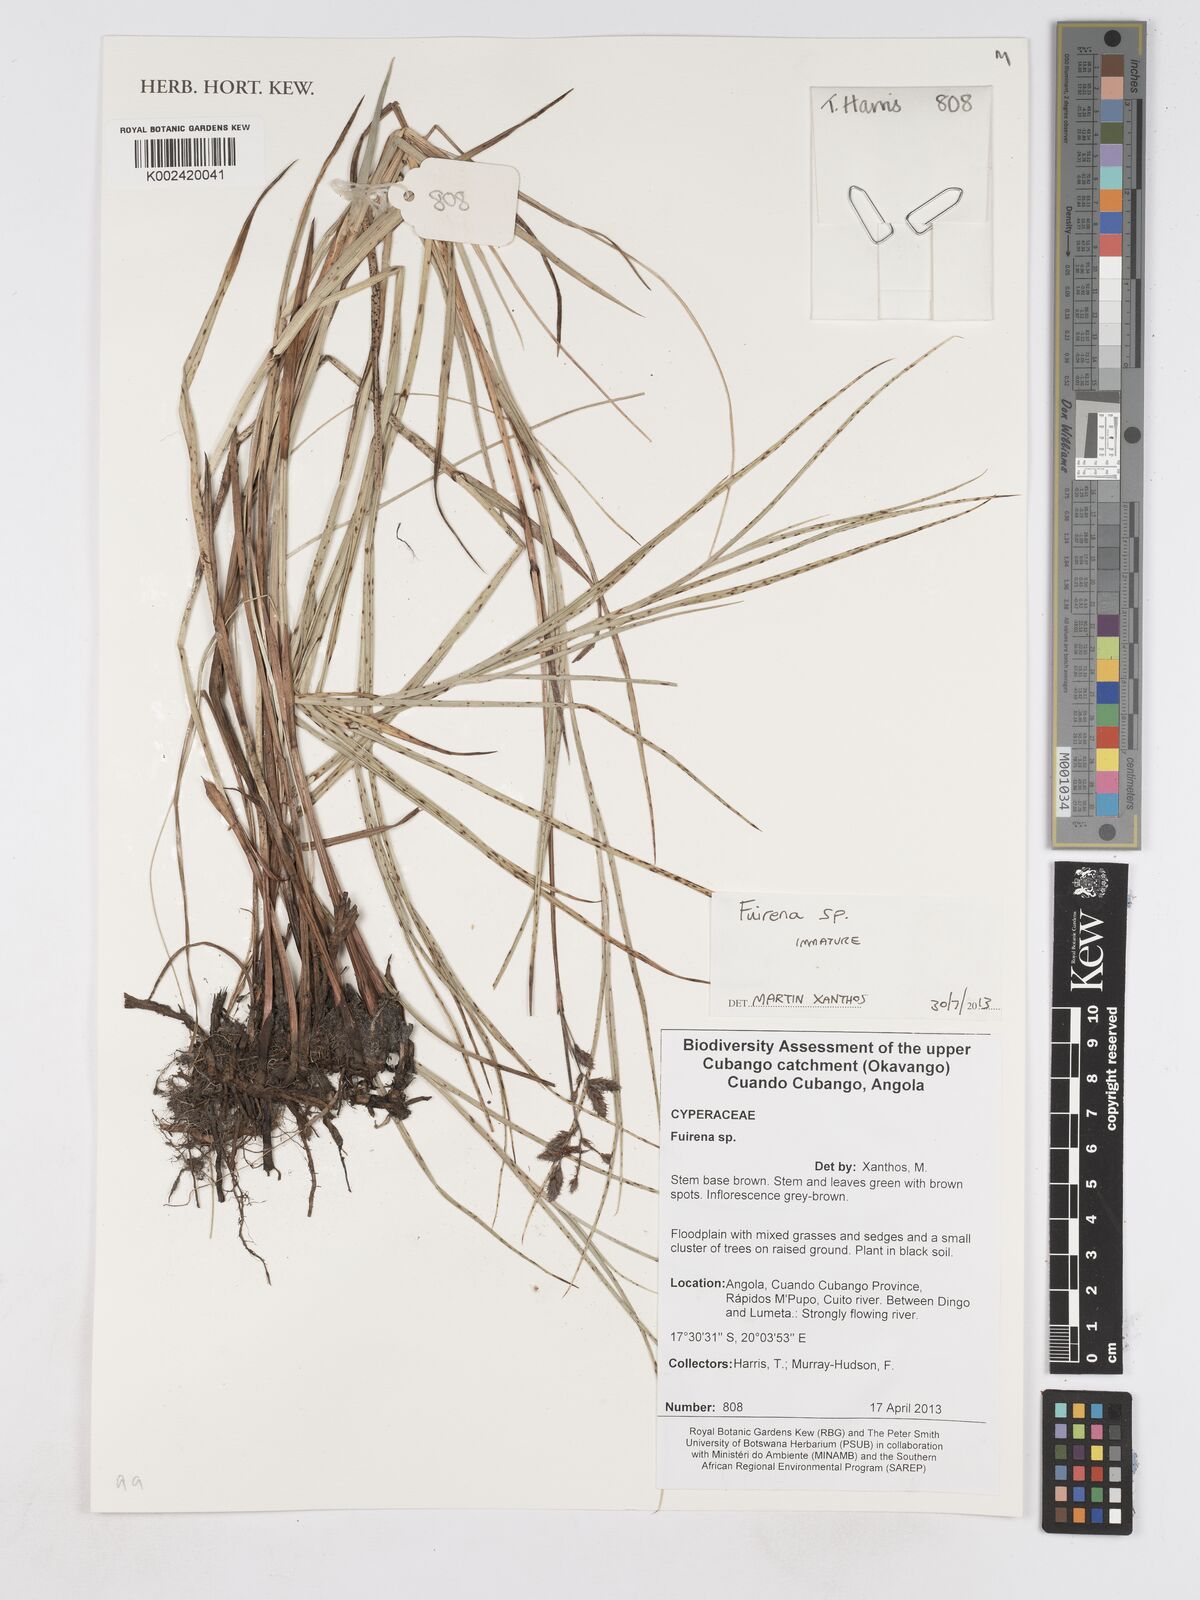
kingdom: Plantae
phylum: Tracheophyta
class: Liliopsida
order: Poales
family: Cyperaceae
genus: Fuirena
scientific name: Fuirena
